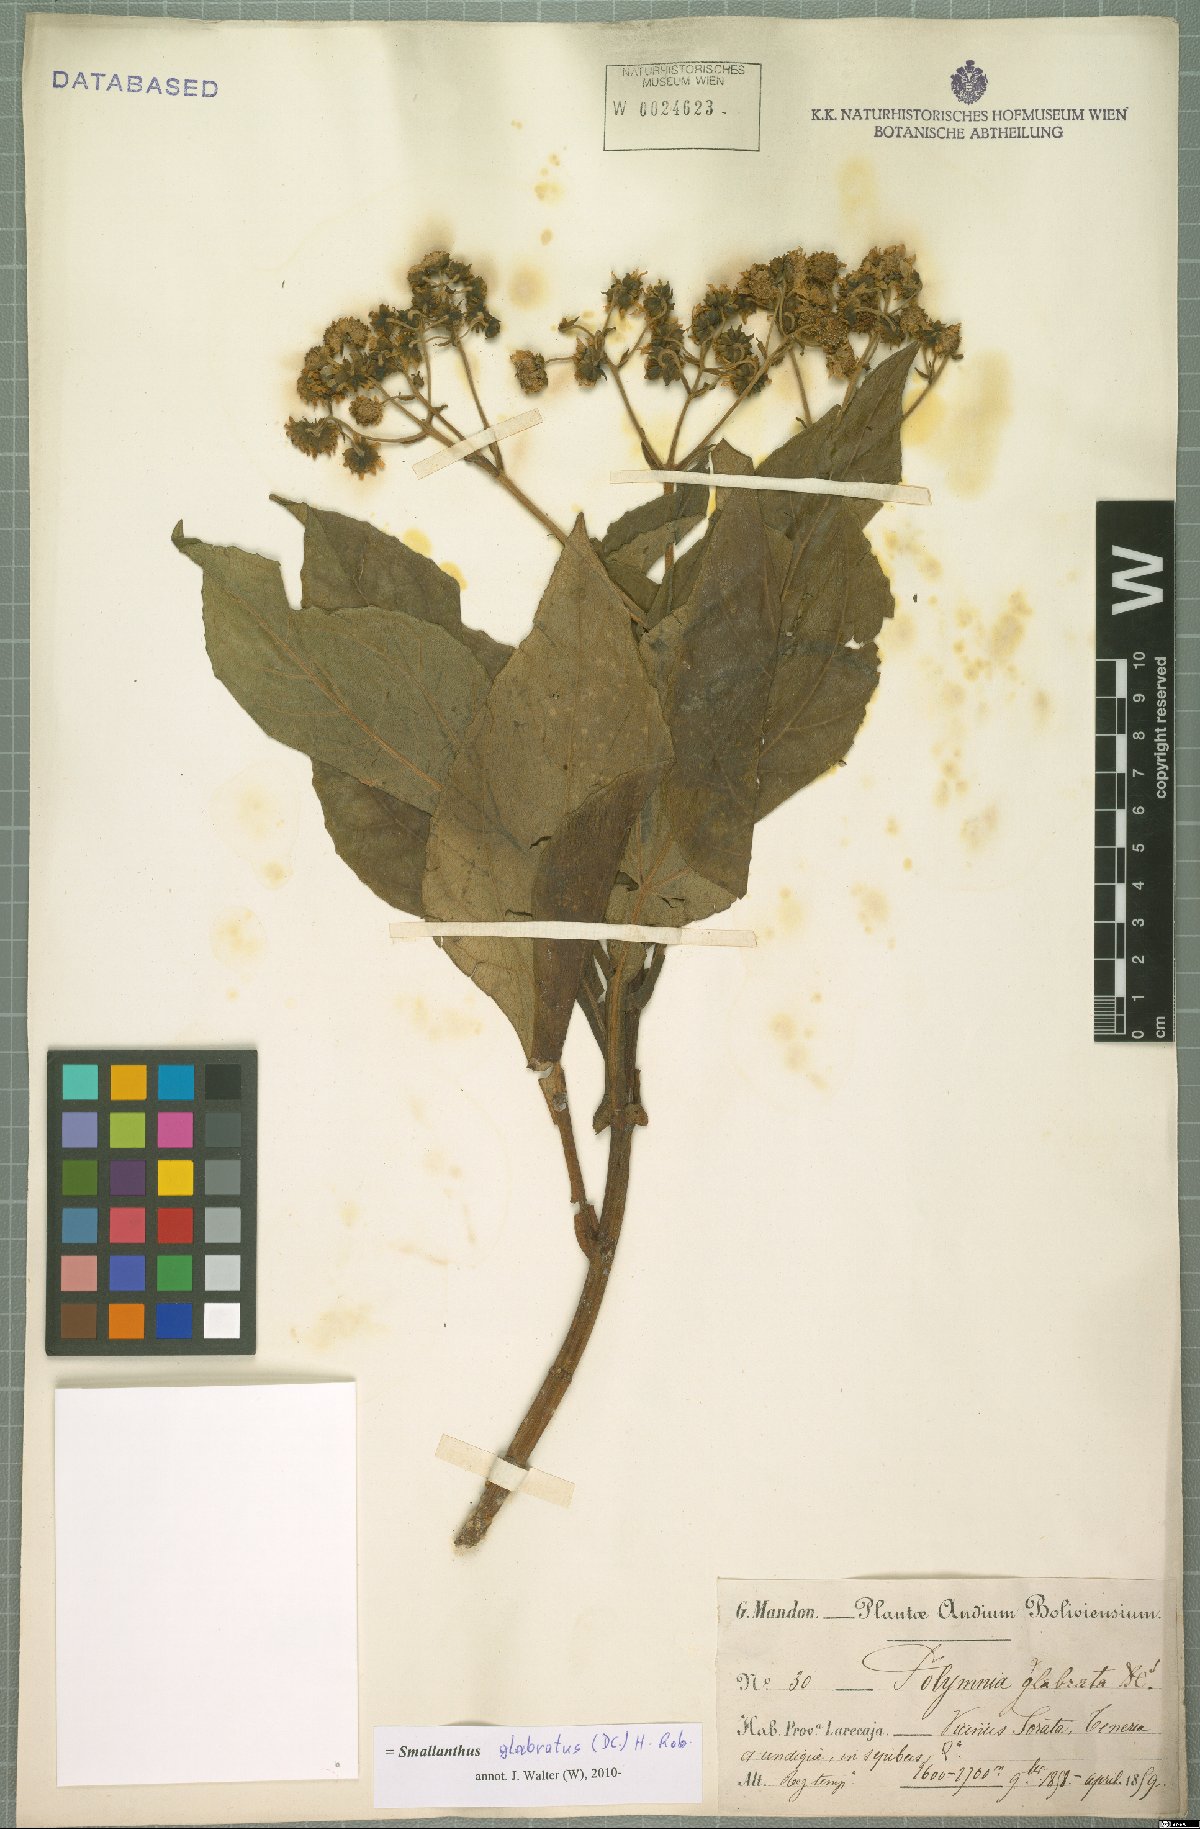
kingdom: Plantae
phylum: Tracheophyta
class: Magnoliopsida
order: Asterales
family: Asteraceae
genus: Smallanthus
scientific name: Smallanthus glabratus
